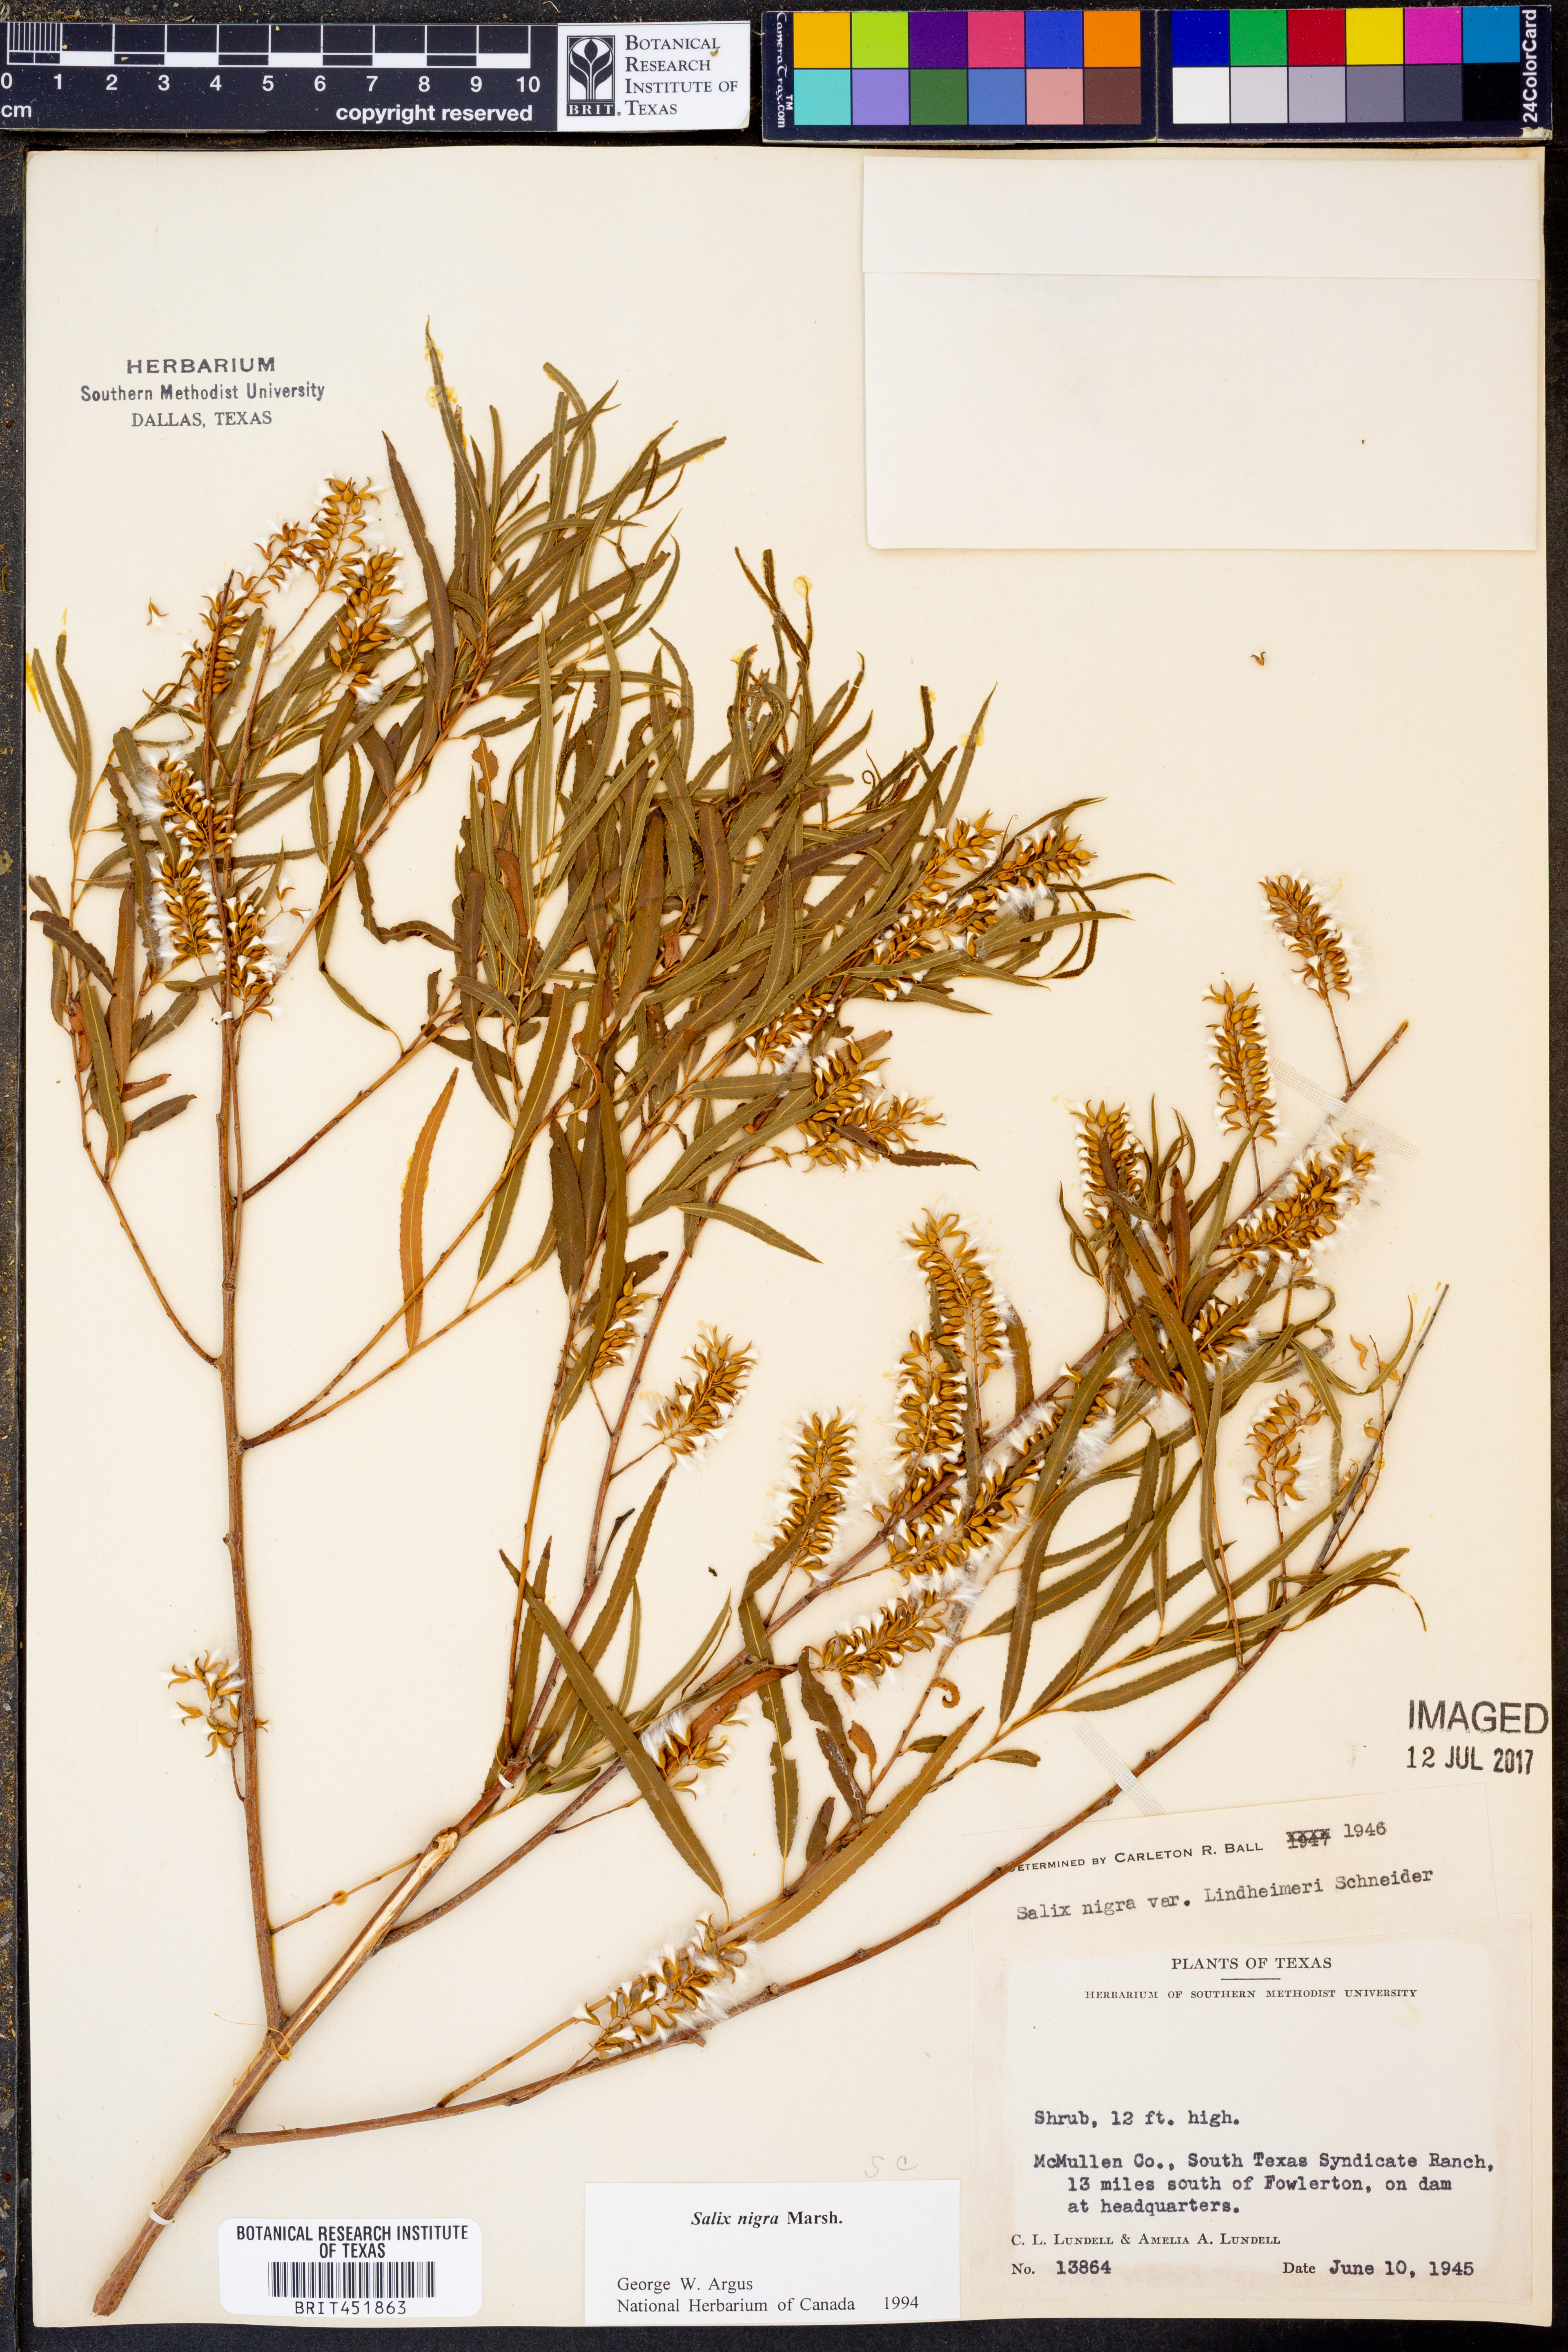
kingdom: Plantae
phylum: Tracheophyta
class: Magnoliopsida
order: Malpighiales
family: Salicaceae
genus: Salix
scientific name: Salix nigra
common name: Black willow
